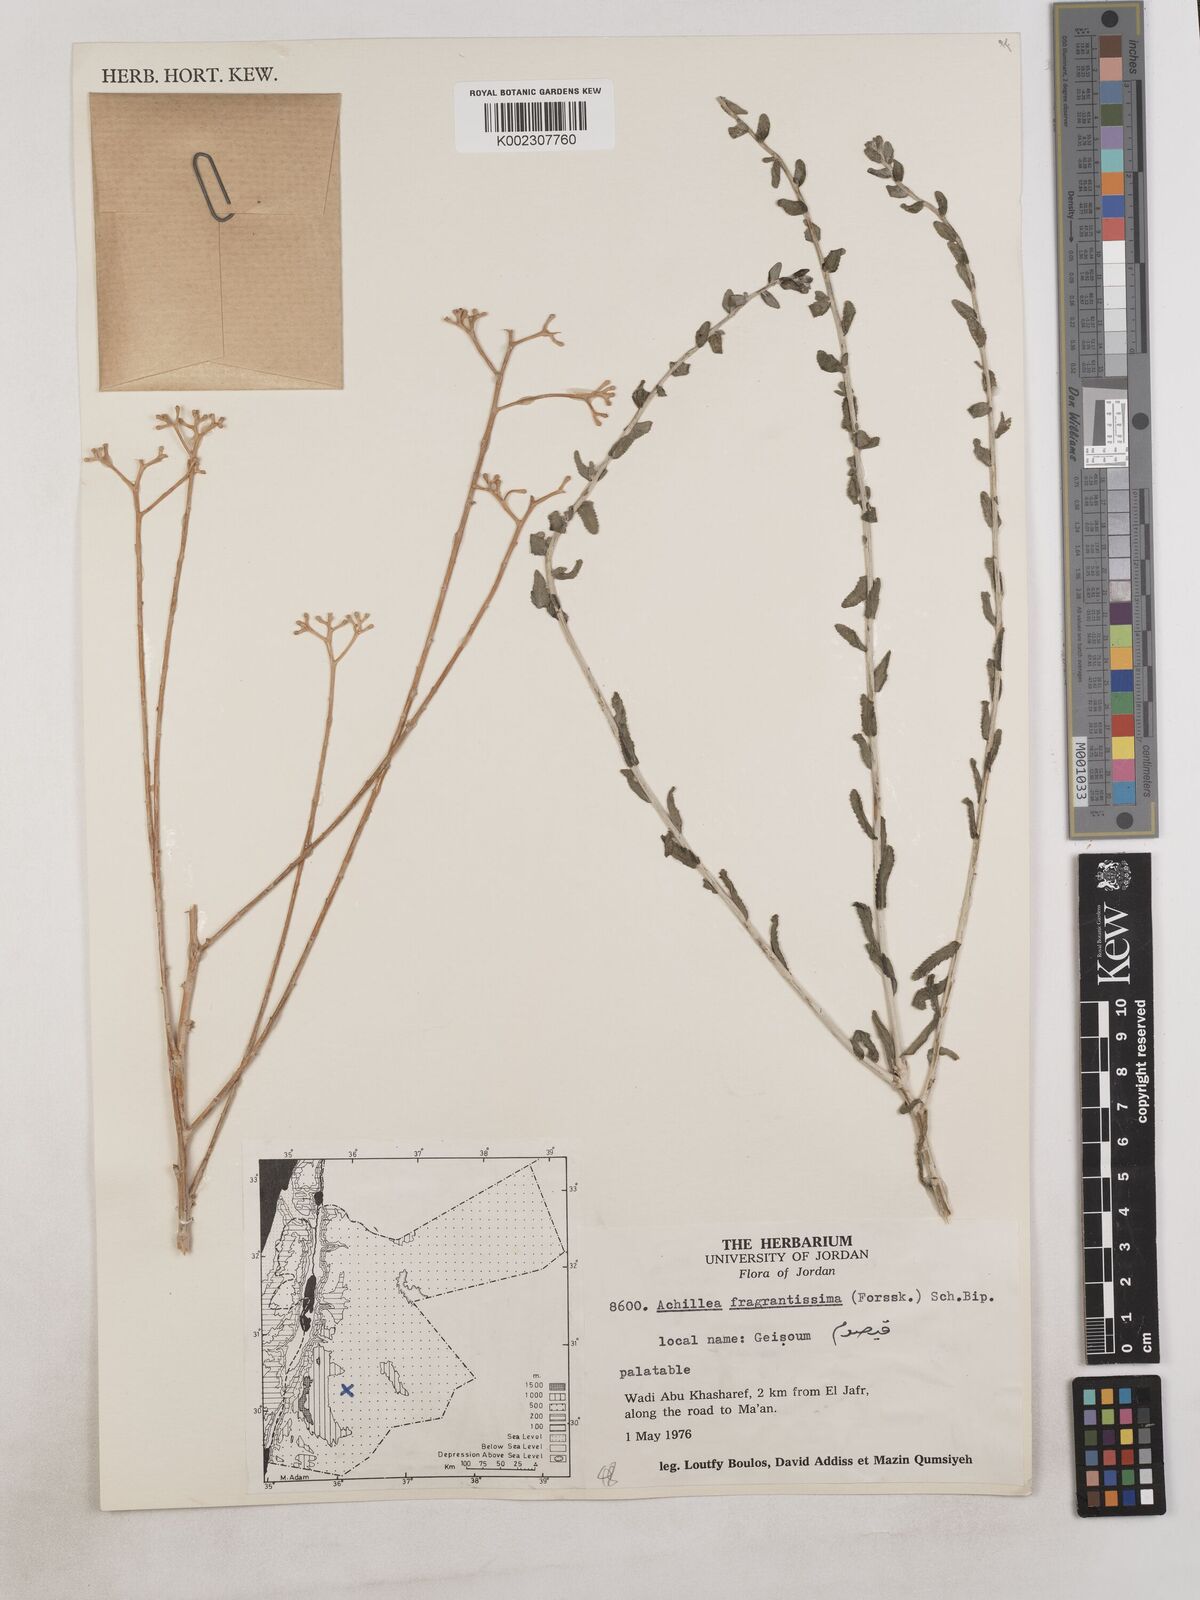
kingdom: Plantae
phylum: Tracheophyta
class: Magnoliopsida
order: Asterales
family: Asteraceae
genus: Achillea
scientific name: Achillea fragrantissima
